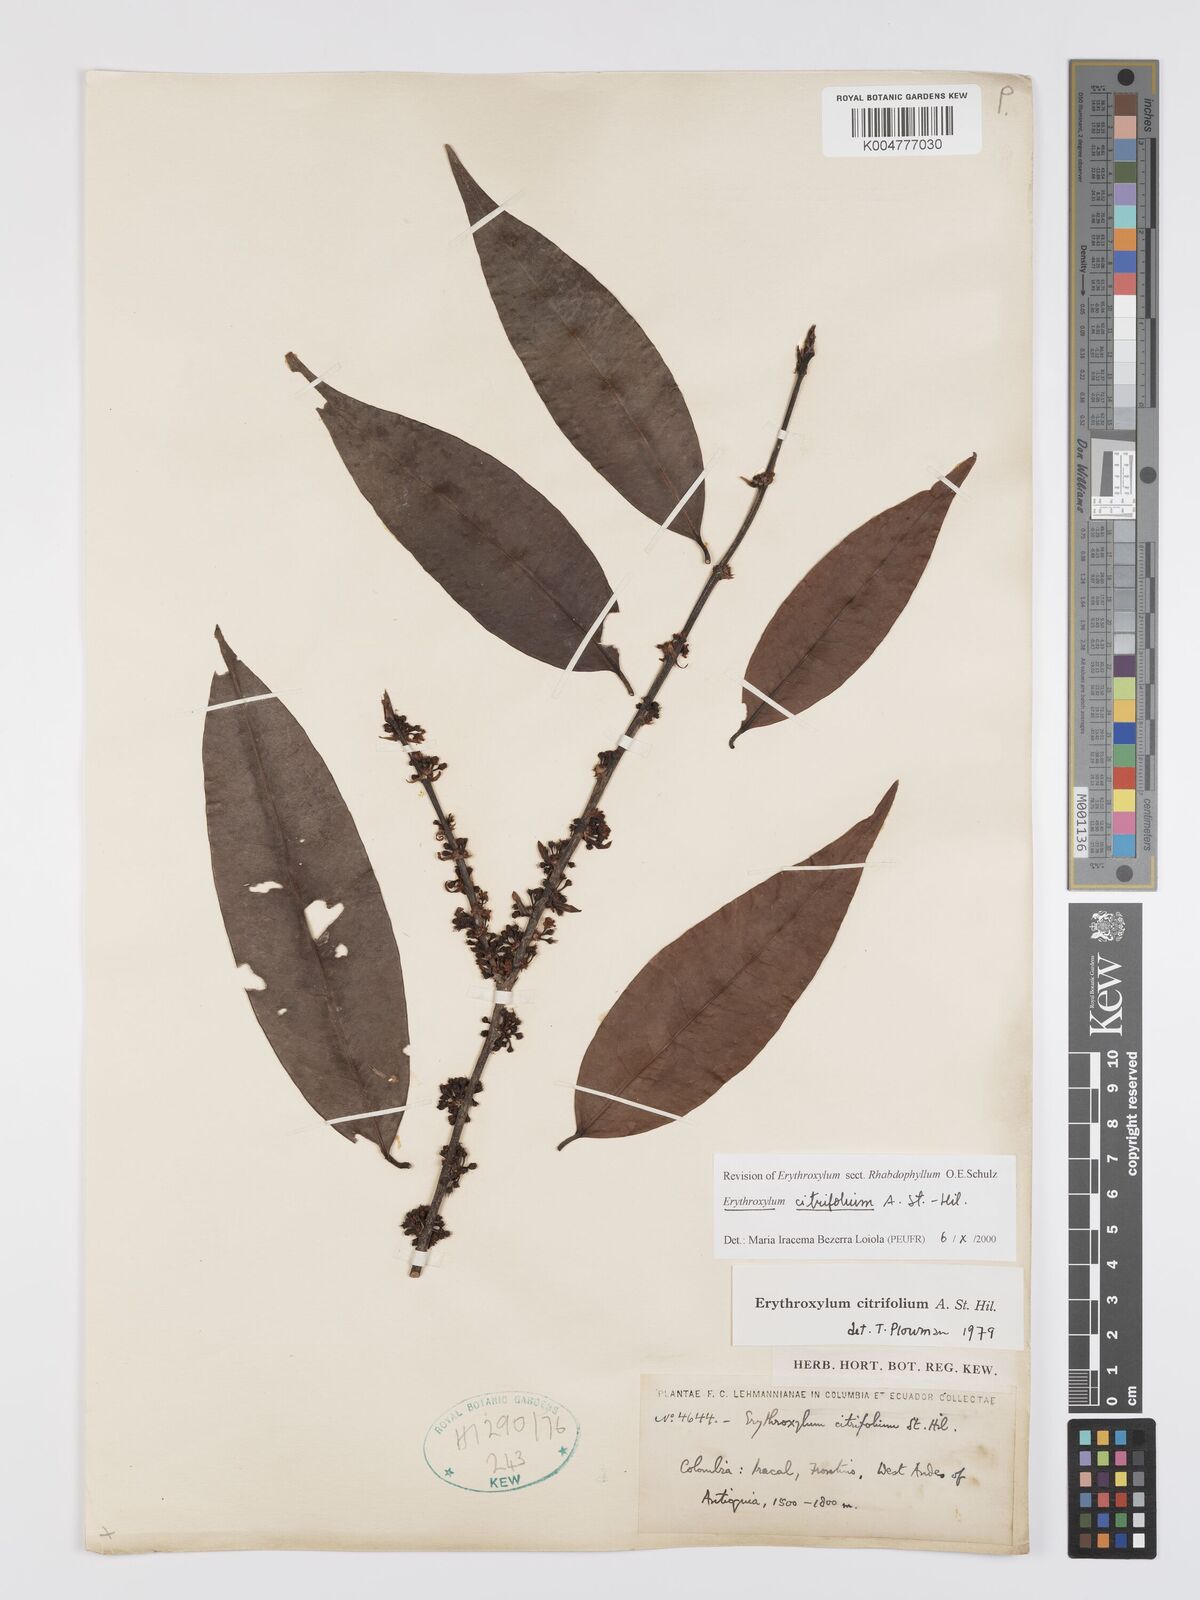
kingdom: Plantae
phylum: Tracheophyta
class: Magnoliopsida
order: Malpighiales
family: Erythroxylaceae
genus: Erythroxylum
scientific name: Erythroxylum citrifolium
